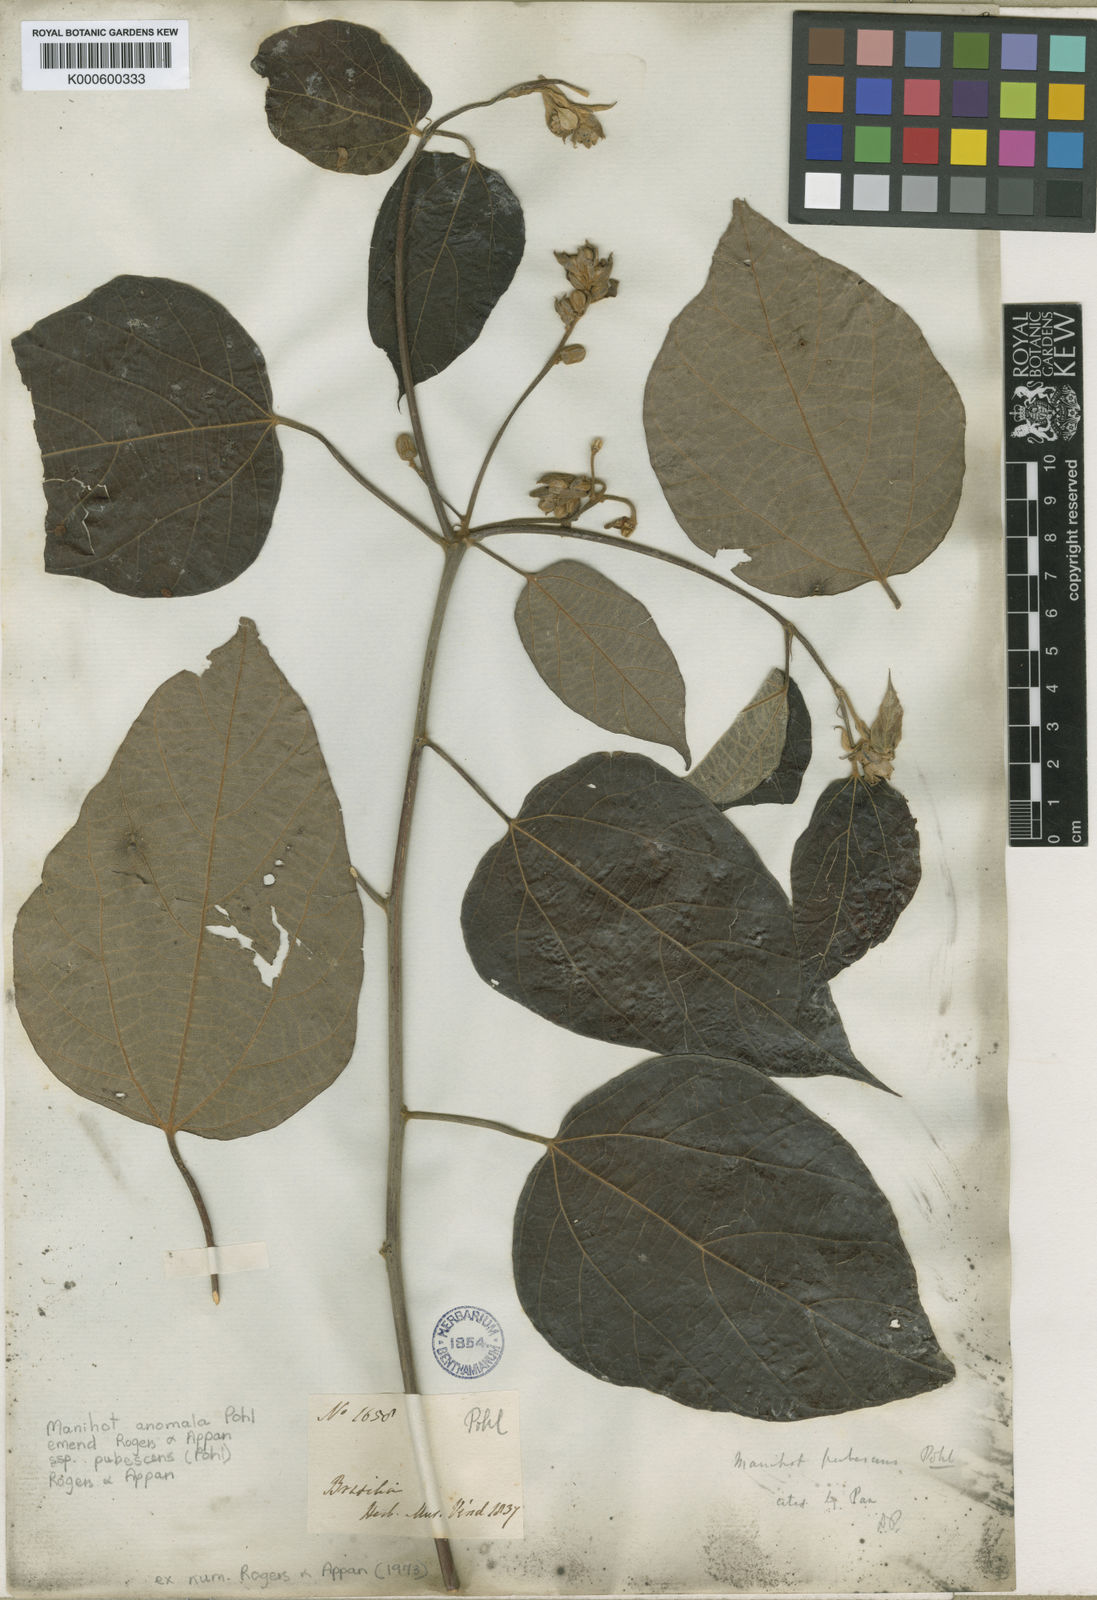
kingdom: Plantae
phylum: Tracheophyta
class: Magnoliopsida
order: Malpighiales
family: Euphorbiaceae
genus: Manihot
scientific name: Manihot anomala
